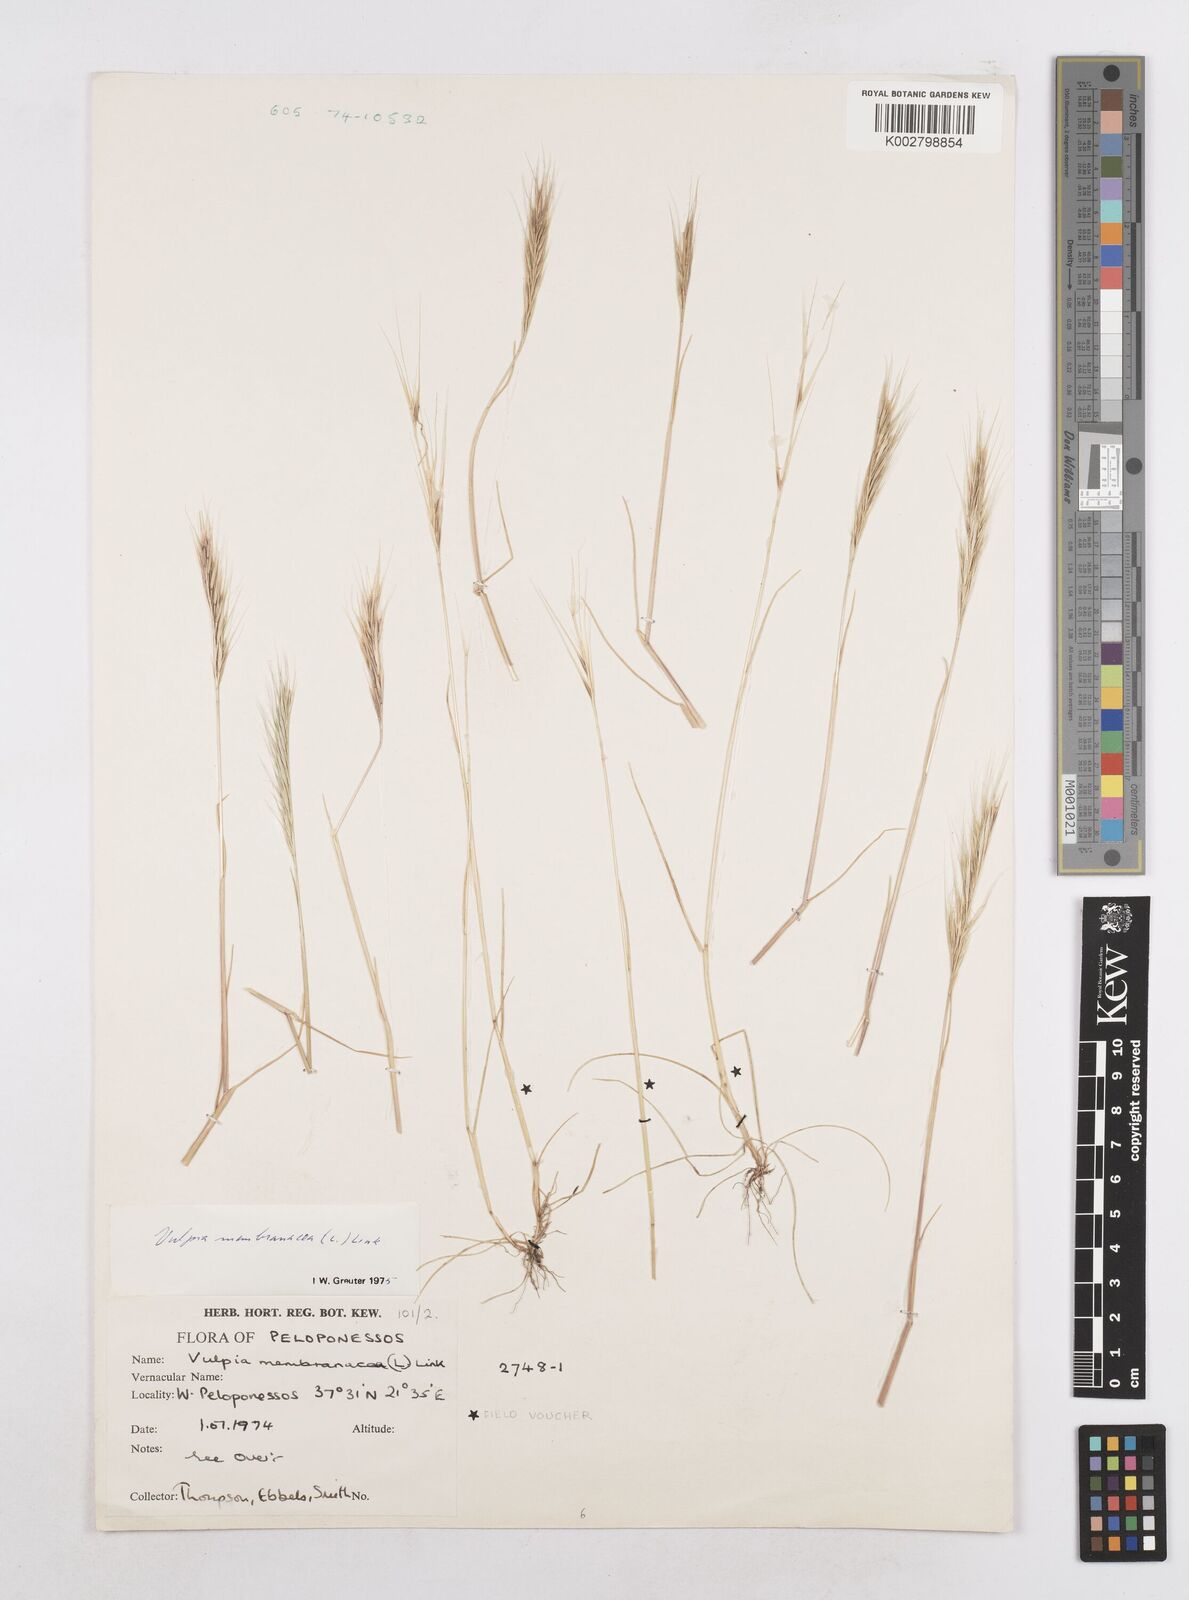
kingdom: Plantae
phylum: Tracheophyta
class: Liliopsida
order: Poales
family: Poaceae
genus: Festuca
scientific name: Festuca membranacea
